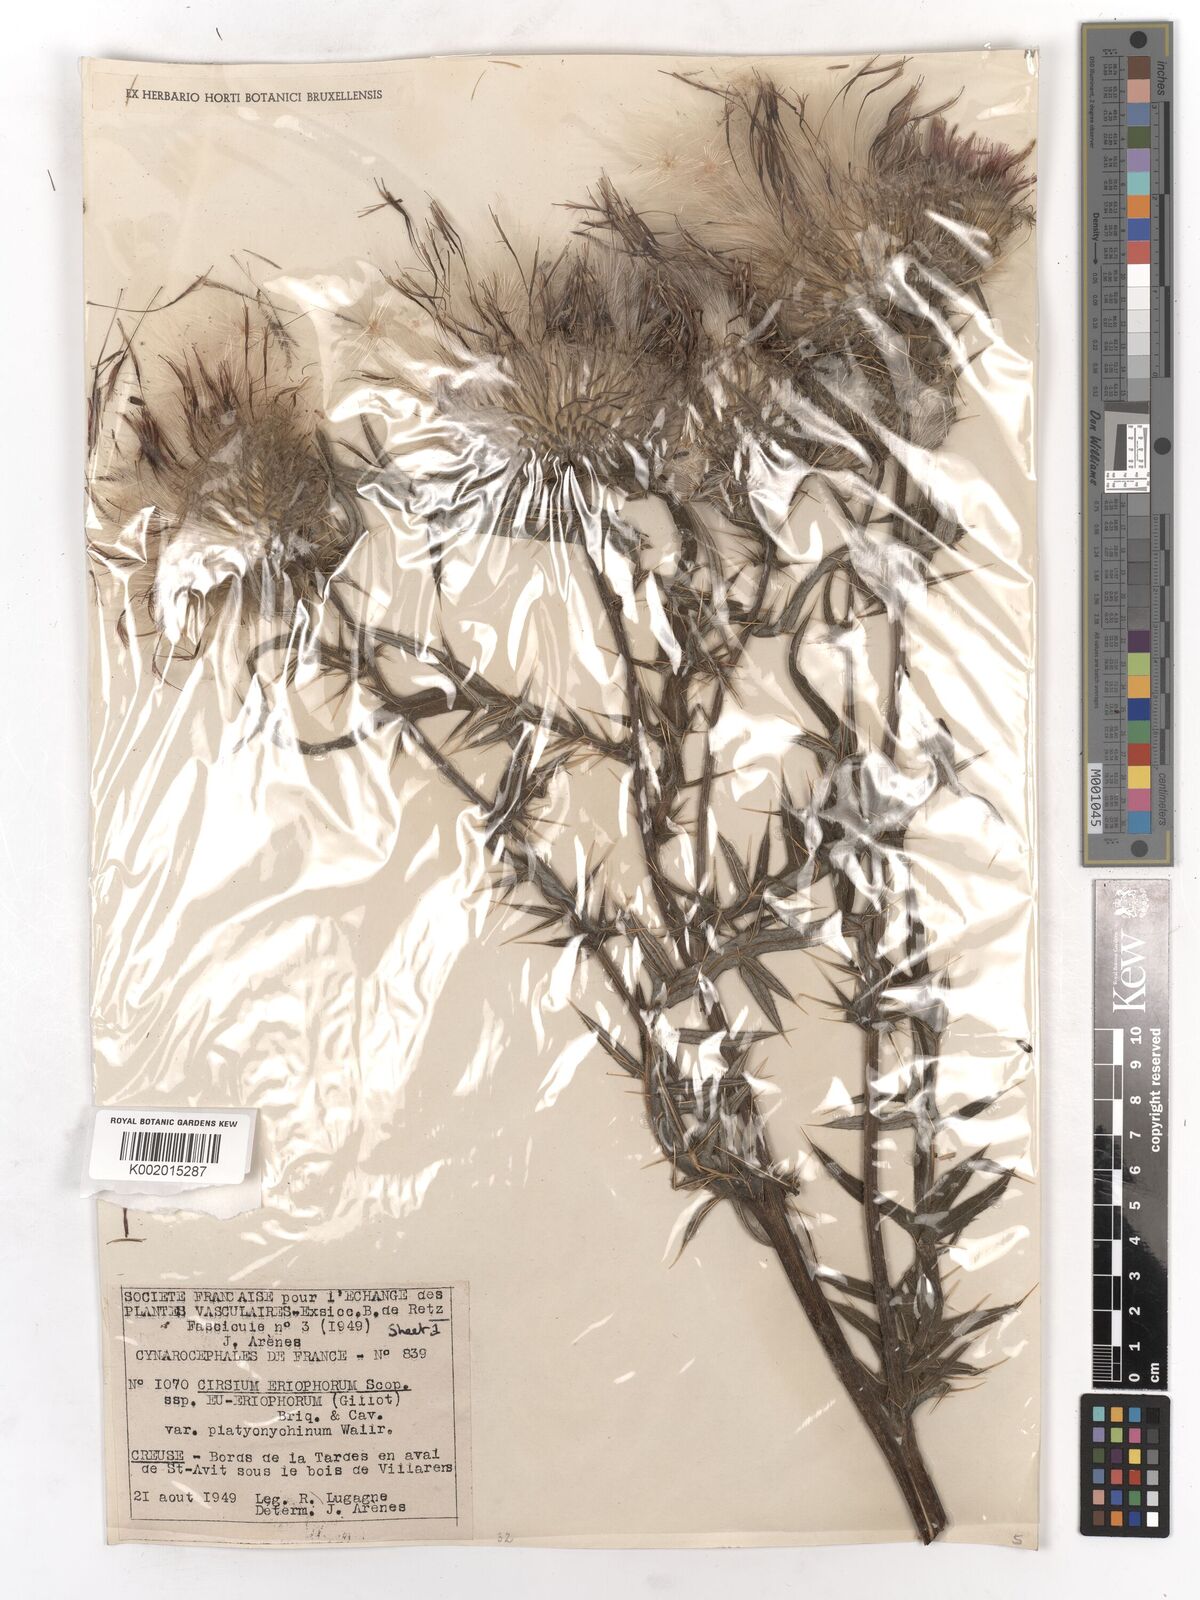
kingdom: Plantae
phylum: Tracheophyta
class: Magnoliopsida
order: Asterales
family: Asteraceae
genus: Lophiolepis
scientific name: Lophiolepis eriophora
